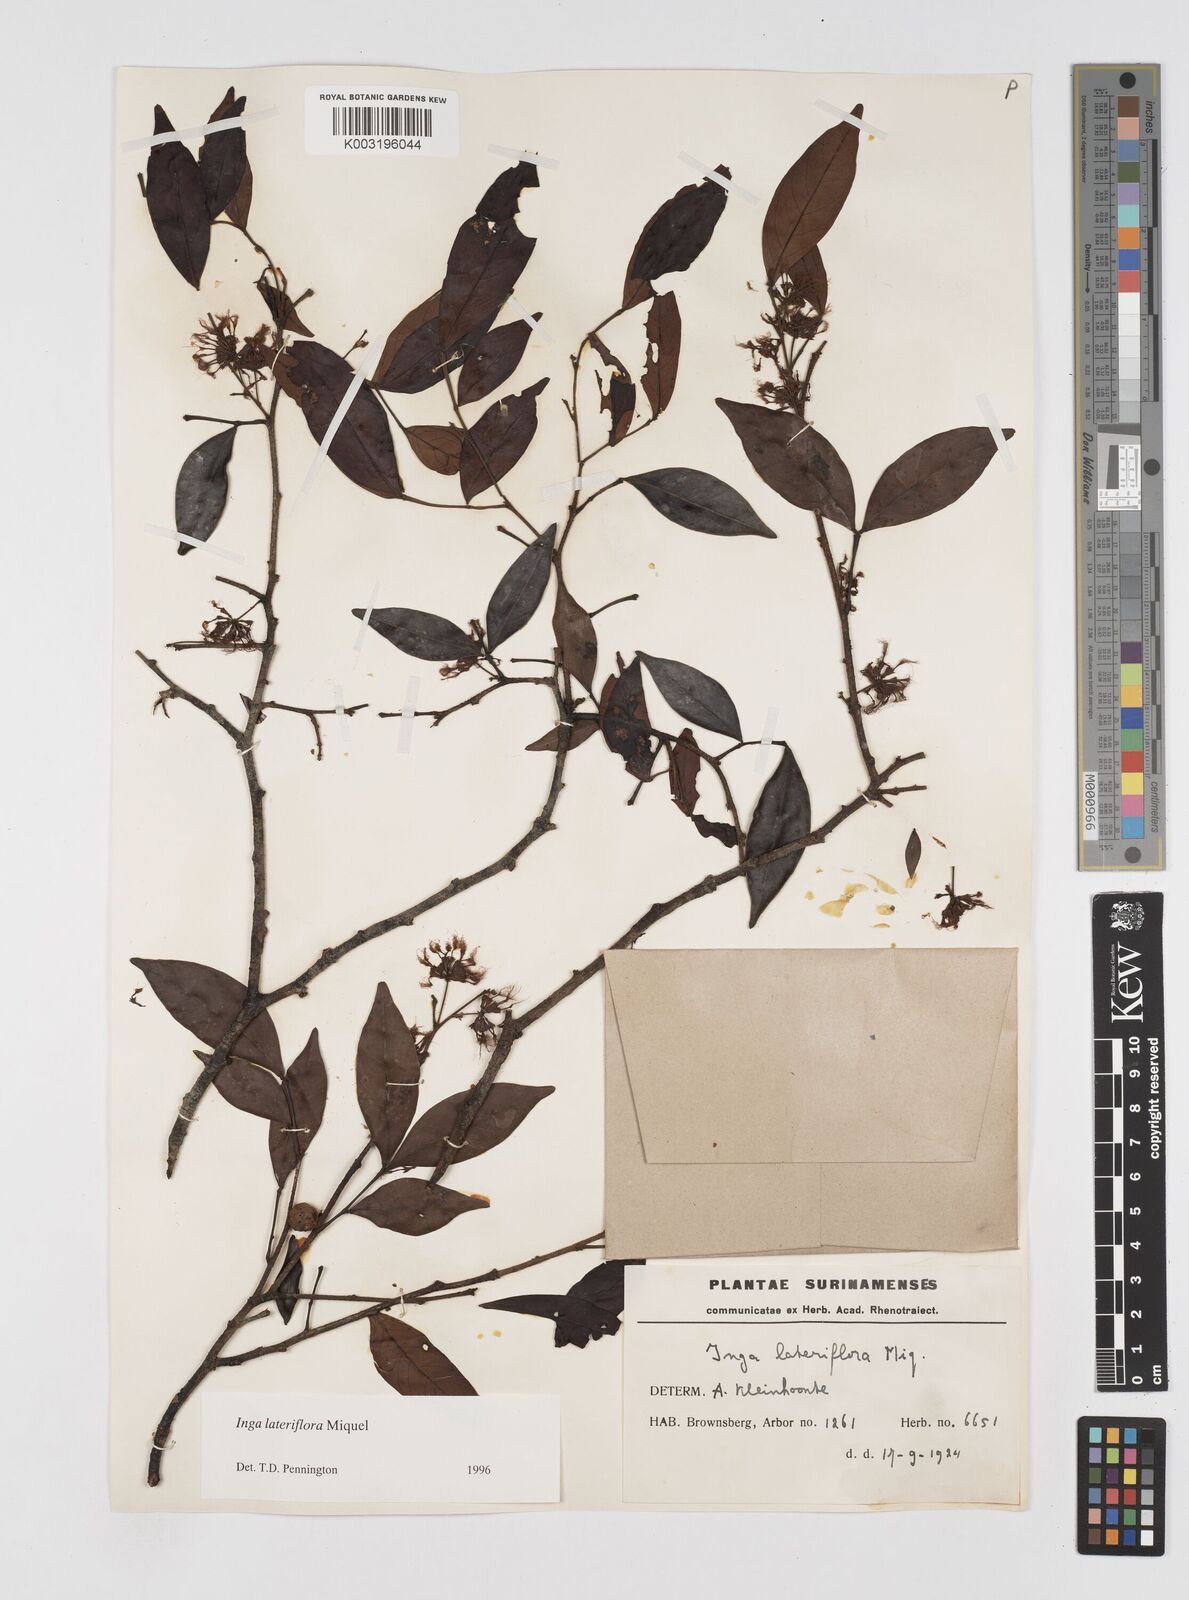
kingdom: Plantae
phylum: Tracheophyta
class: Magnoliopsida
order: Fabales
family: Fabaceae
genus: Inga
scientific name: Inga lateriflora
